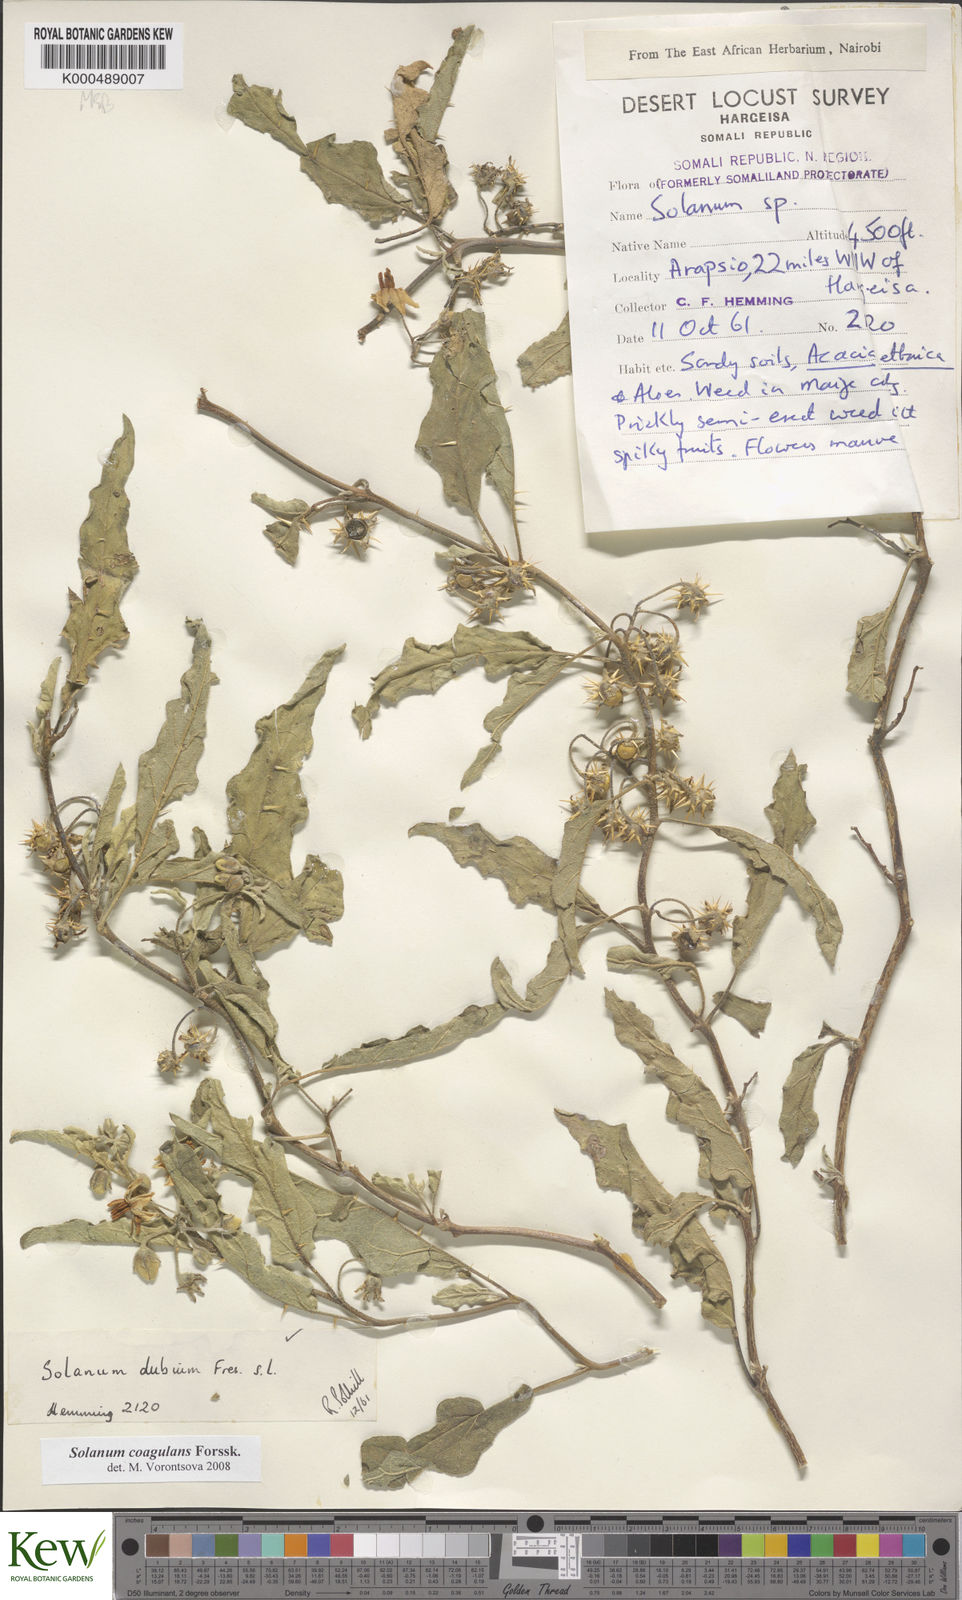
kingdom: Plantae
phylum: Tracheophyta
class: Magnoliopsida
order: Solanales
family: Solanaceae
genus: Solanum
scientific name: Solanum coagulans
